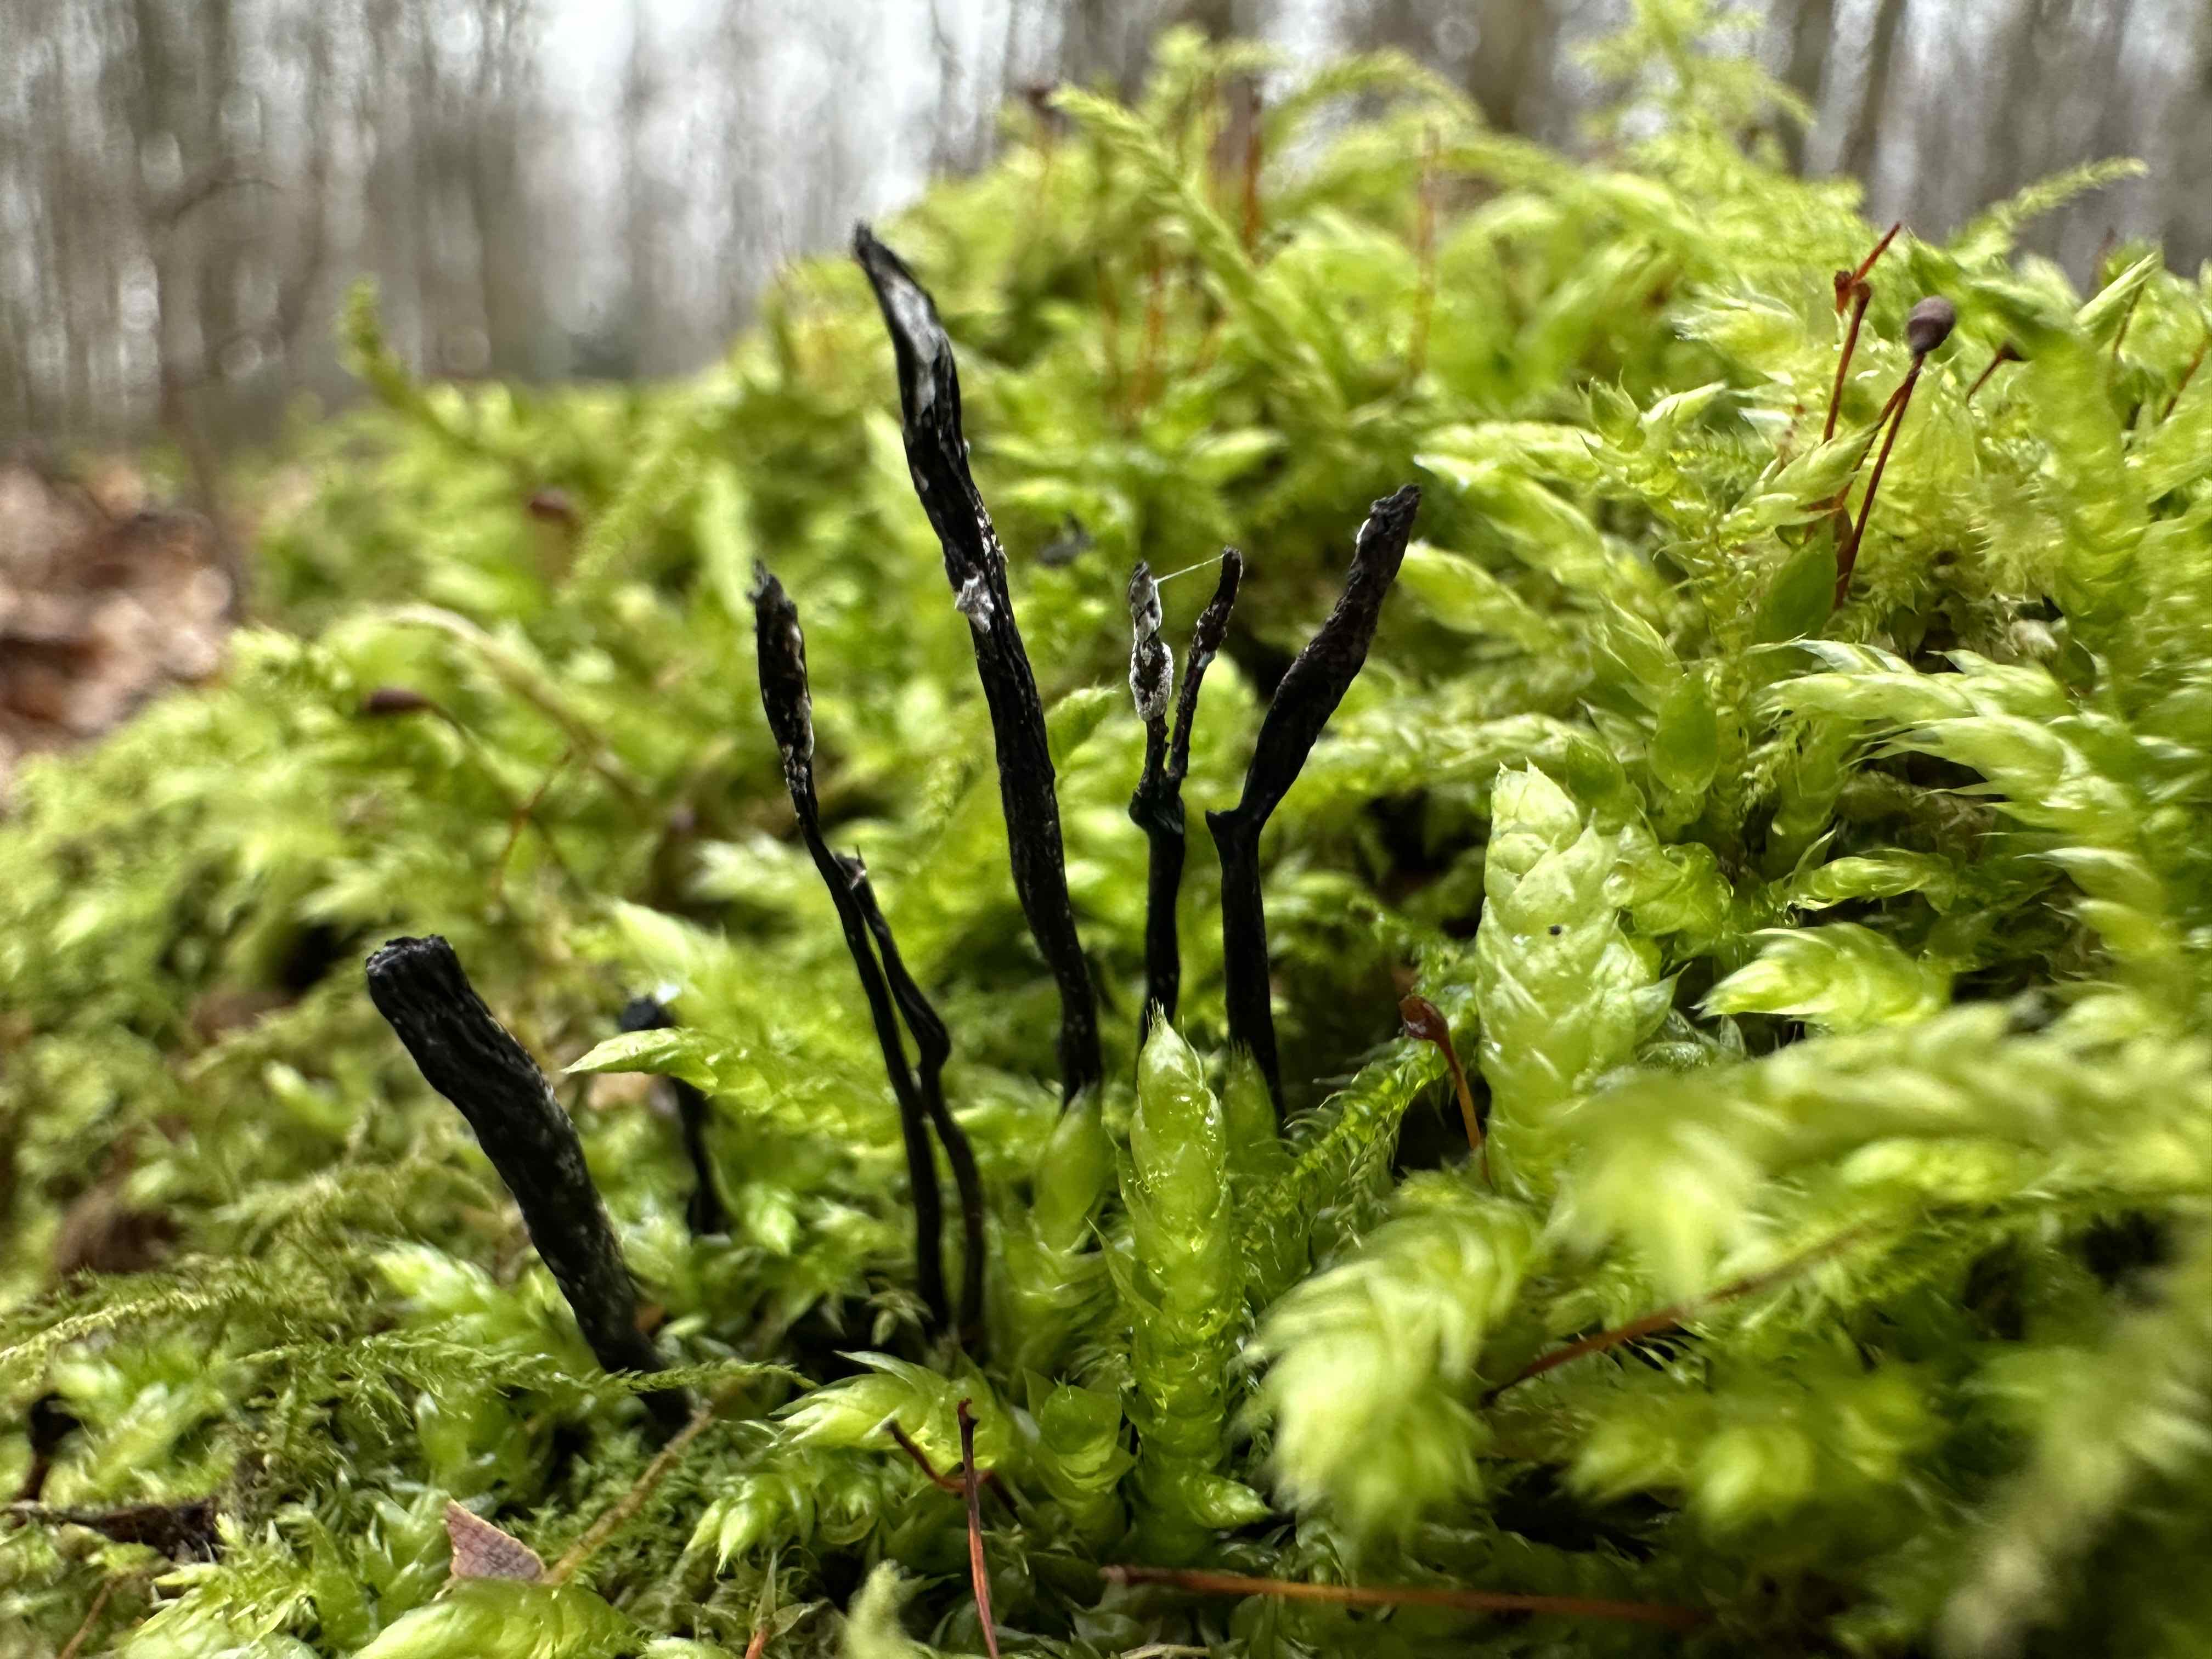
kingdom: Fungi
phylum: Ascomycota
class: Sordariomycetes
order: Xylariales
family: Xylariaceae
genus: Xylaria
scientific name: Xylaria hypoxylon
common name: grenet stødsvamp
